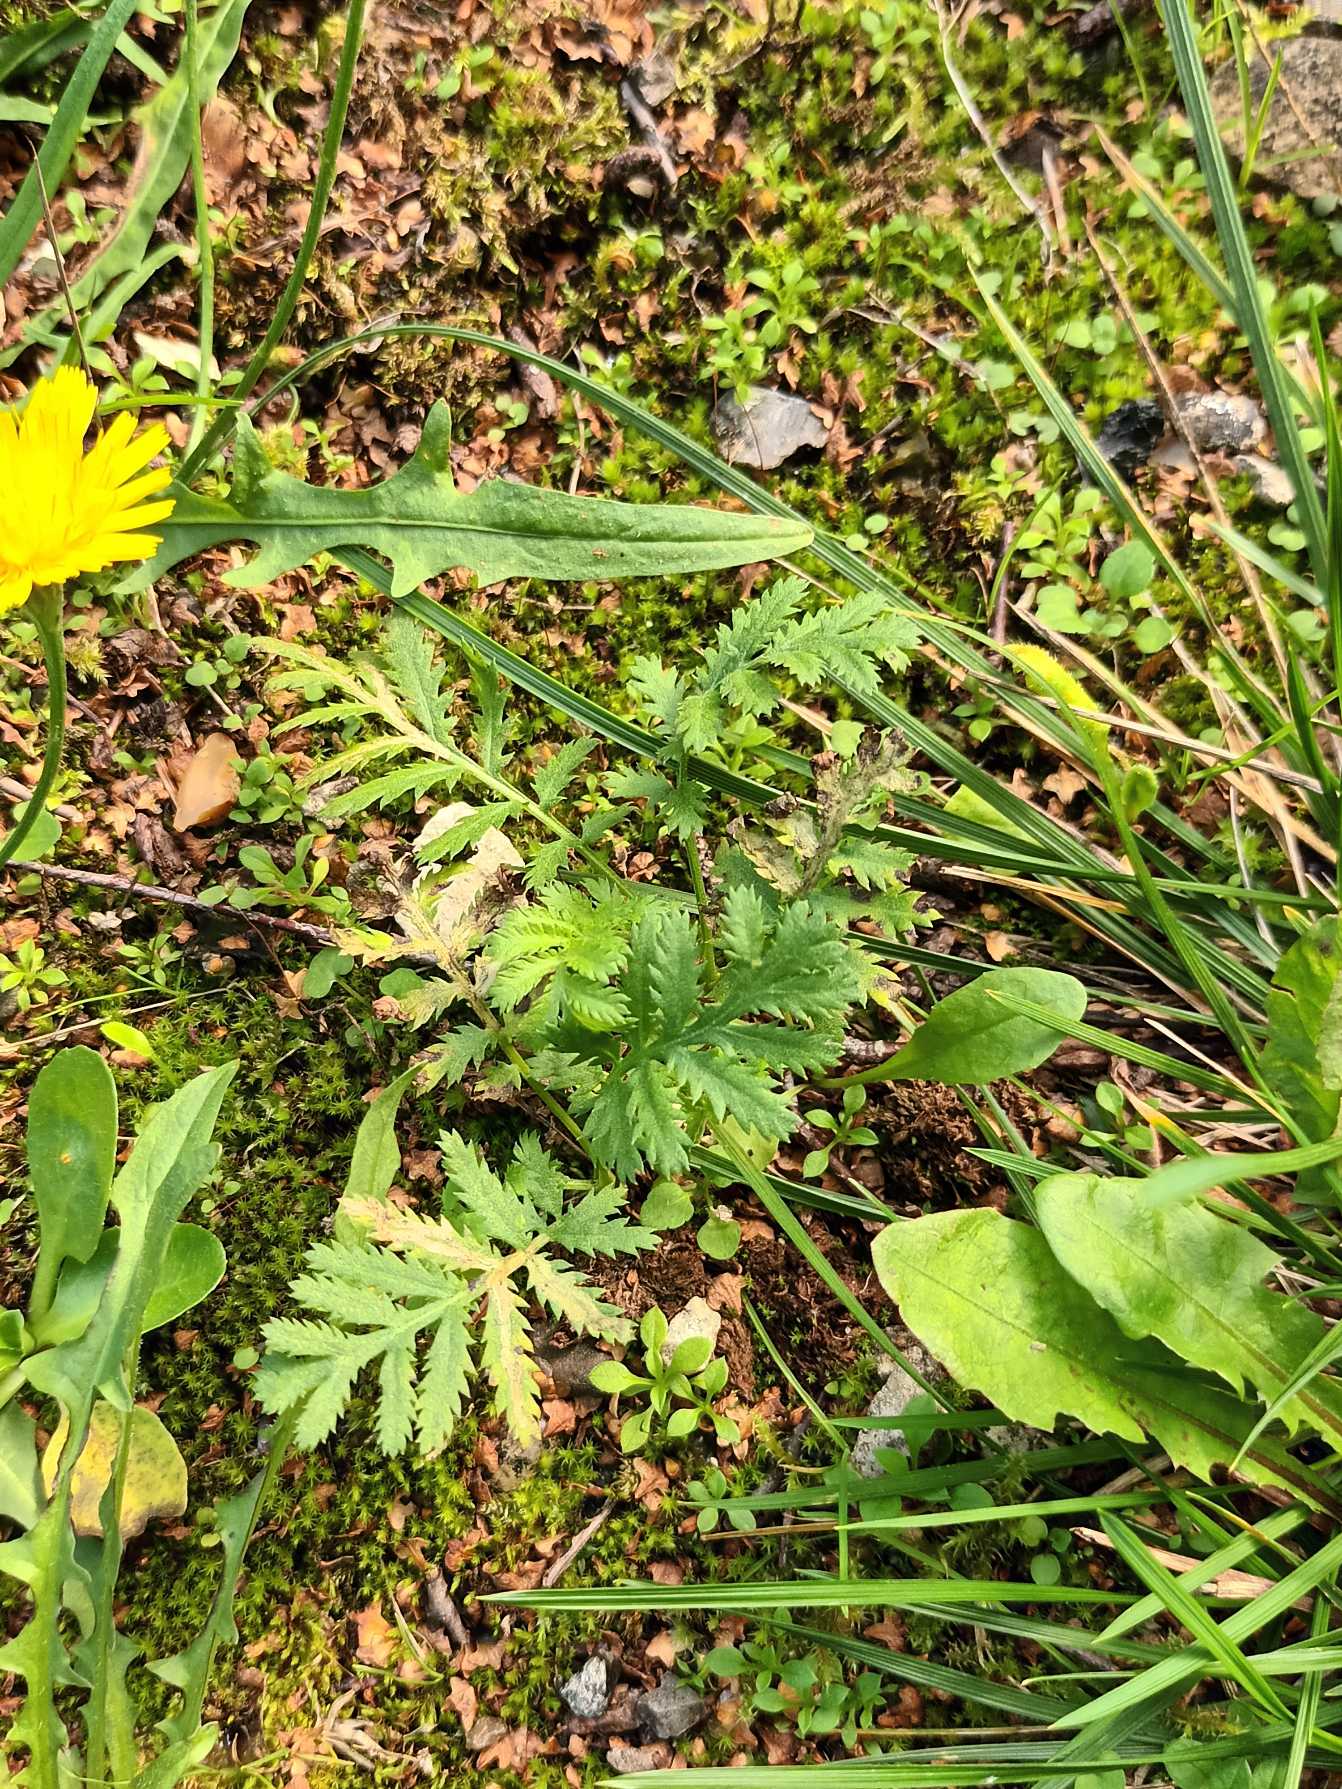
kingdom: Plantae
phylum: Tracheophyta
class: Magnoliopsida
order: Asterales
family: Asteraceae
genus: Tanacetum
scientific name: Tanacetum vulgare
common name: Rejnfan
